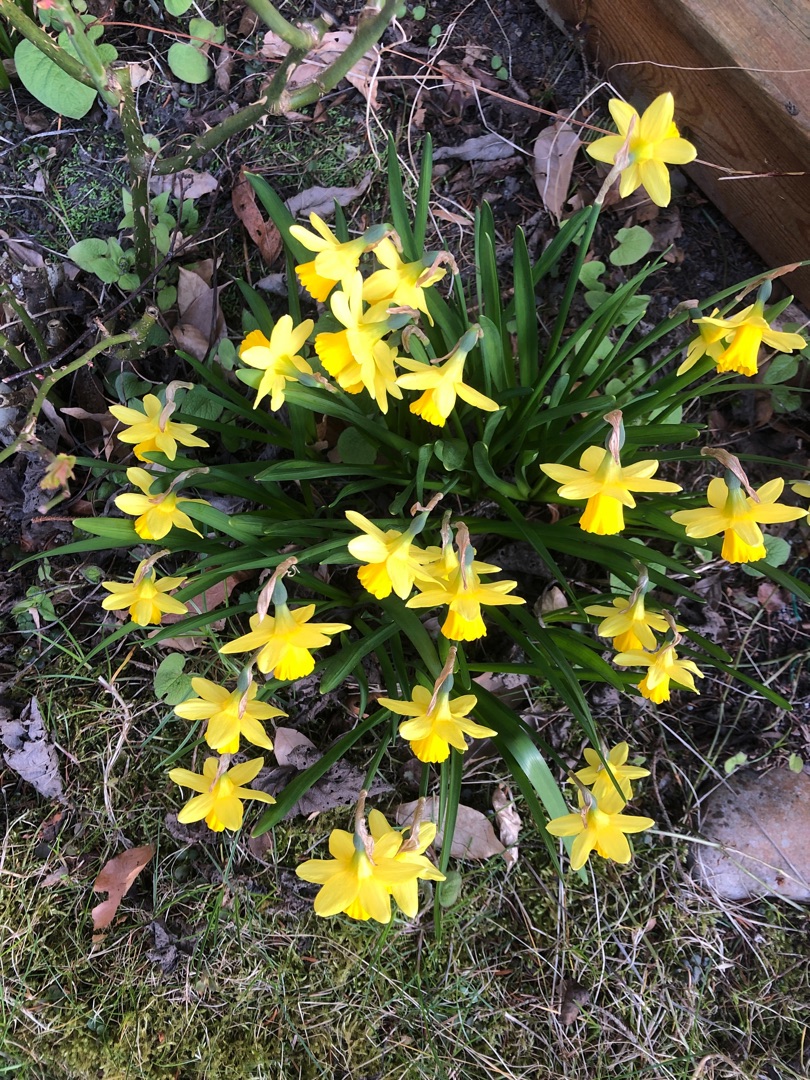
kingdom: Plantae
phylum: Tracheophyta
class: Liliopsida
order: Asparagales
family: Amaryllidaceae
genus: Narcissus
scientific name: Narcissus cyclazetta
